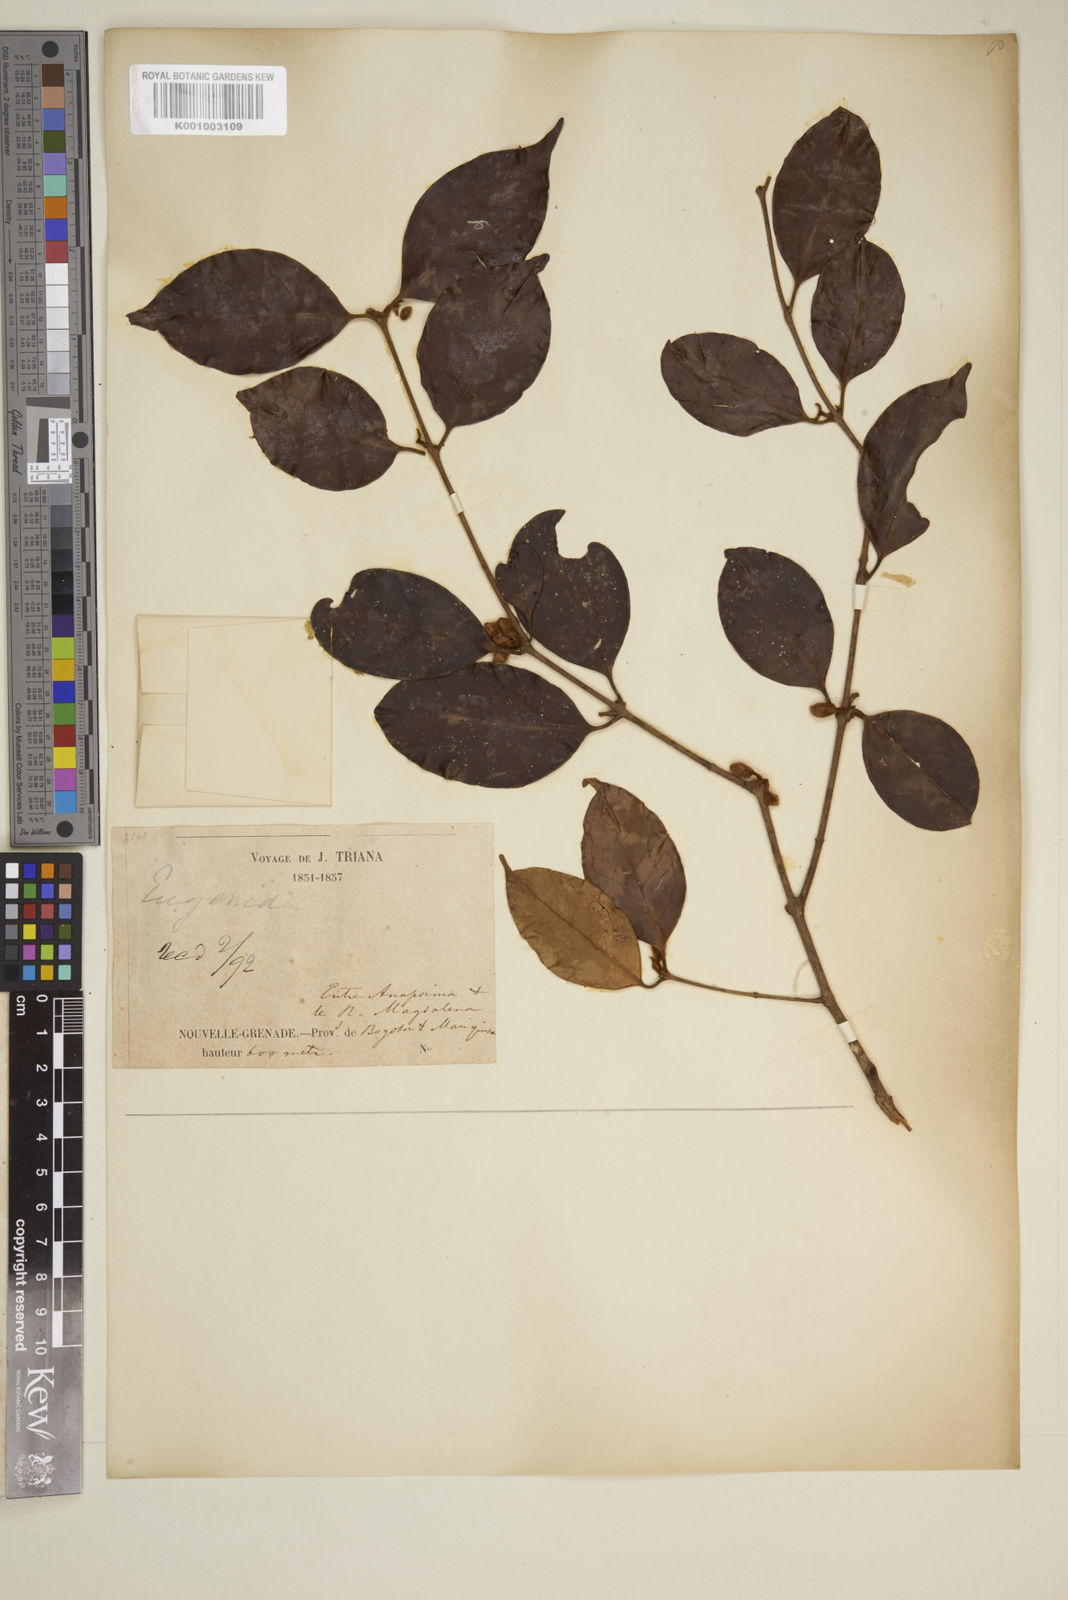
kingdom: Plantae
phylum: Tracheophyta
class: Magnoliopsida
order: Myrtales
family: Myrtaceae
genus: Eugenia
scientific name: Eugenia
